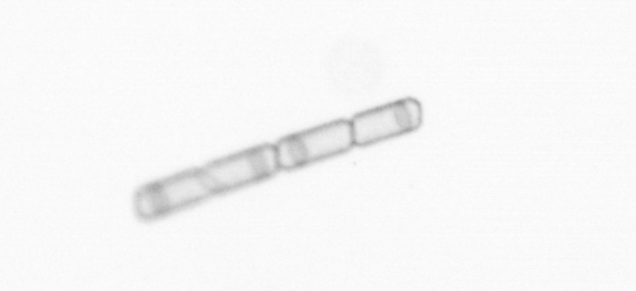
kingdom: Chromista
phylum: Ochrophyta
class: Bacillariophyceae
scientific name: Bacillariophyceae
